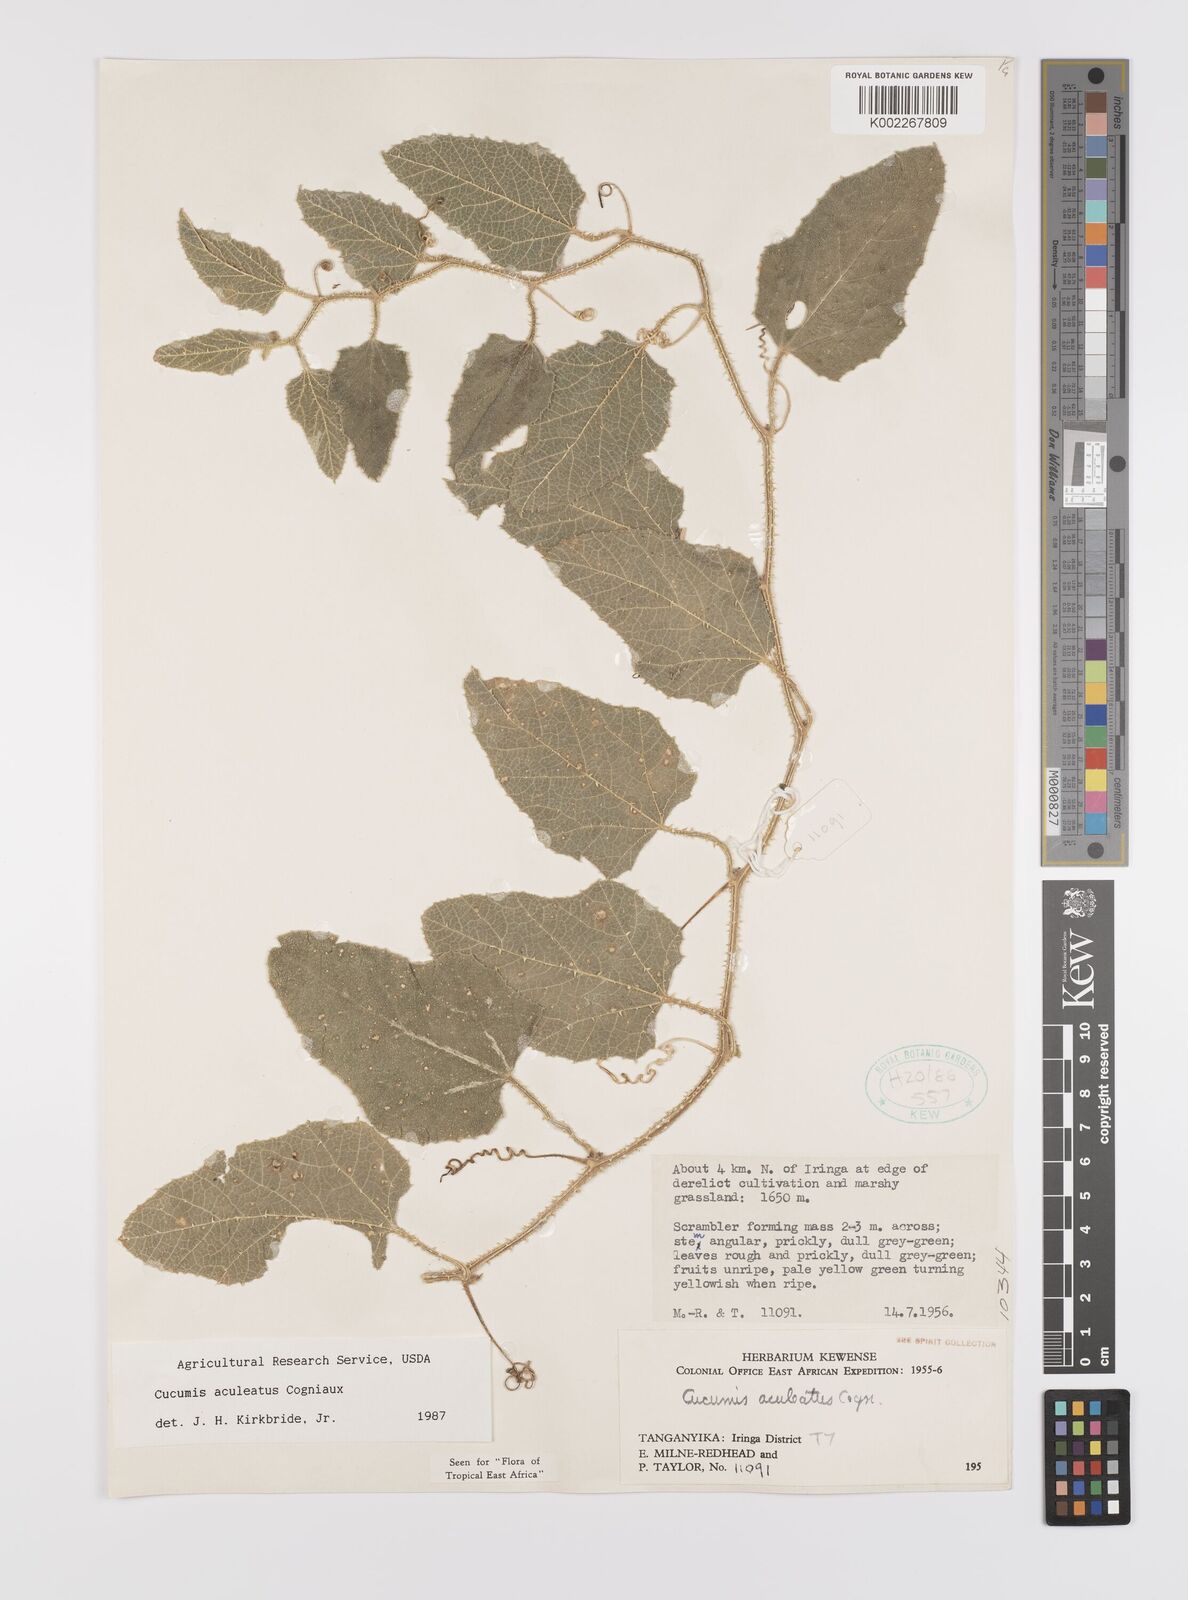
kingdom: Plantae
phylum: Tracheophyta
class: Magnoliopsida
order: Cucurbitales
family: Cucurbitaceae
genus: Cucumis
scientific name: Cucumis aculeatus
